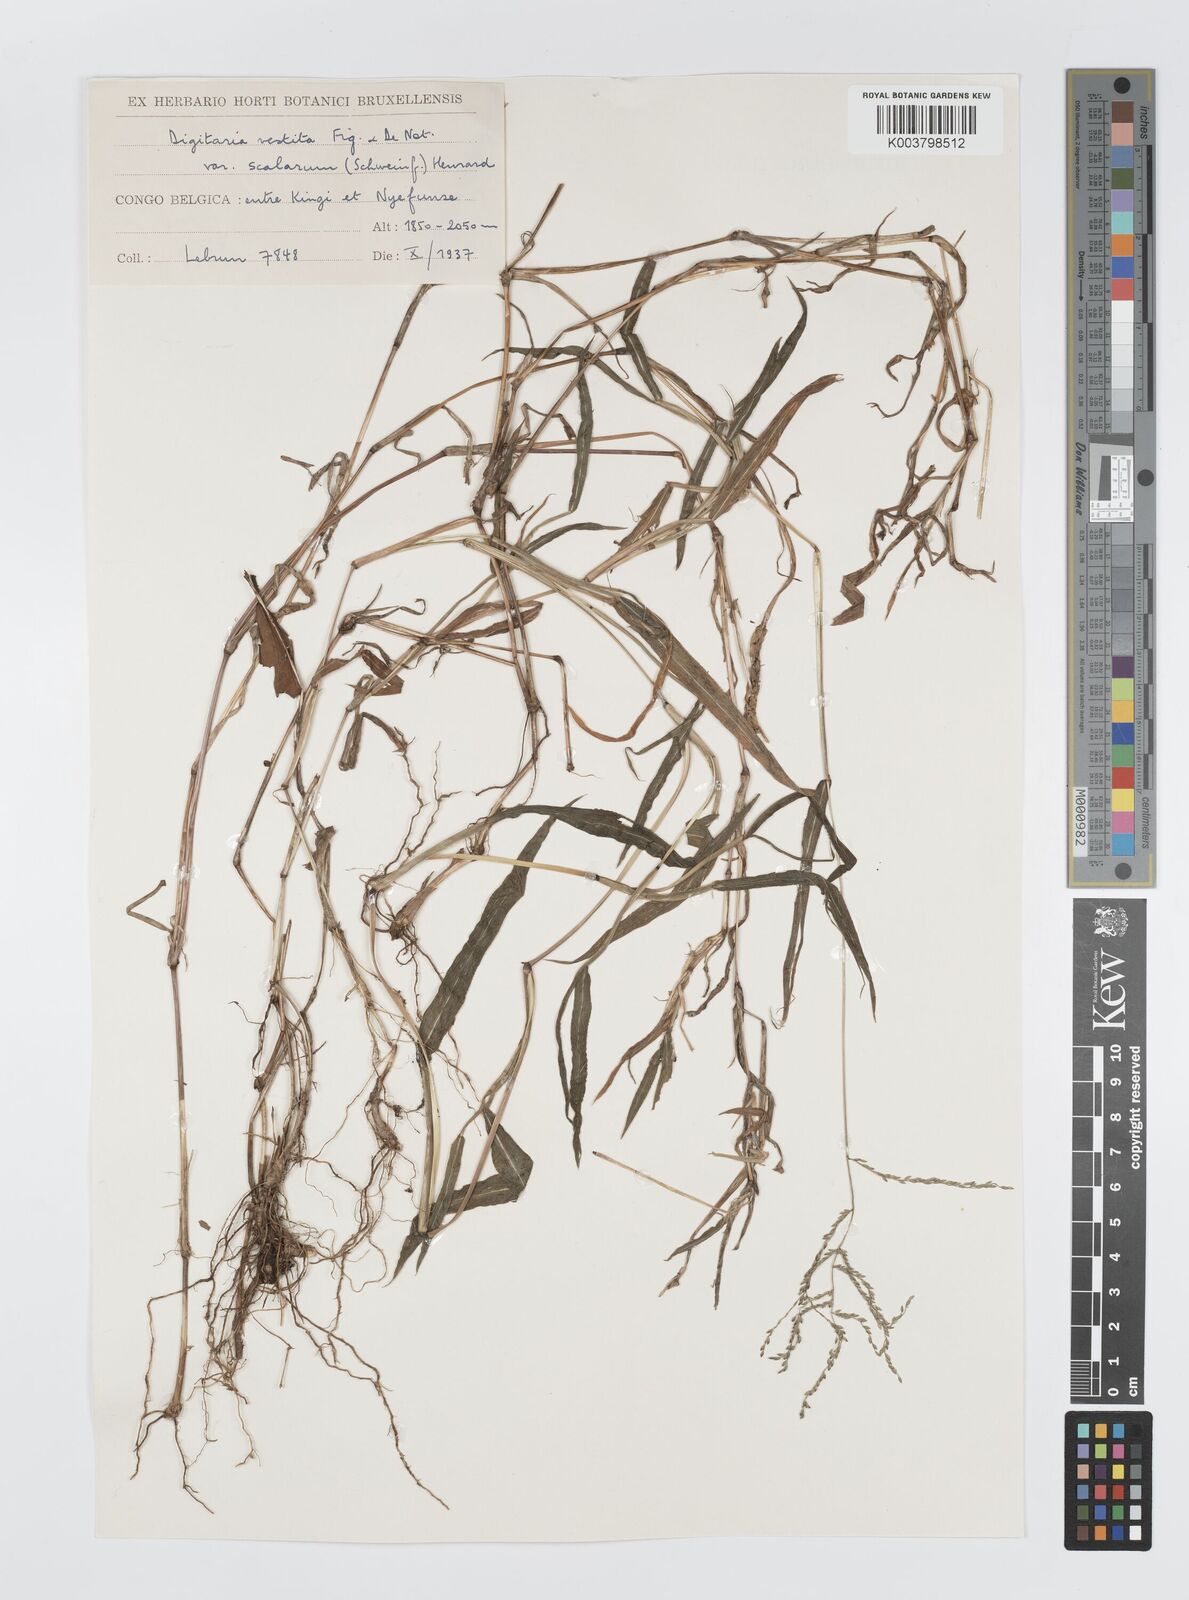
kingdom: Plantae
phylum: Tracheophyta
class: Liliopsida
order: Poales
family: Poaceae
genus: Digitaria
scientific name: Digitaria abyssinica
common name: African couchgrass
